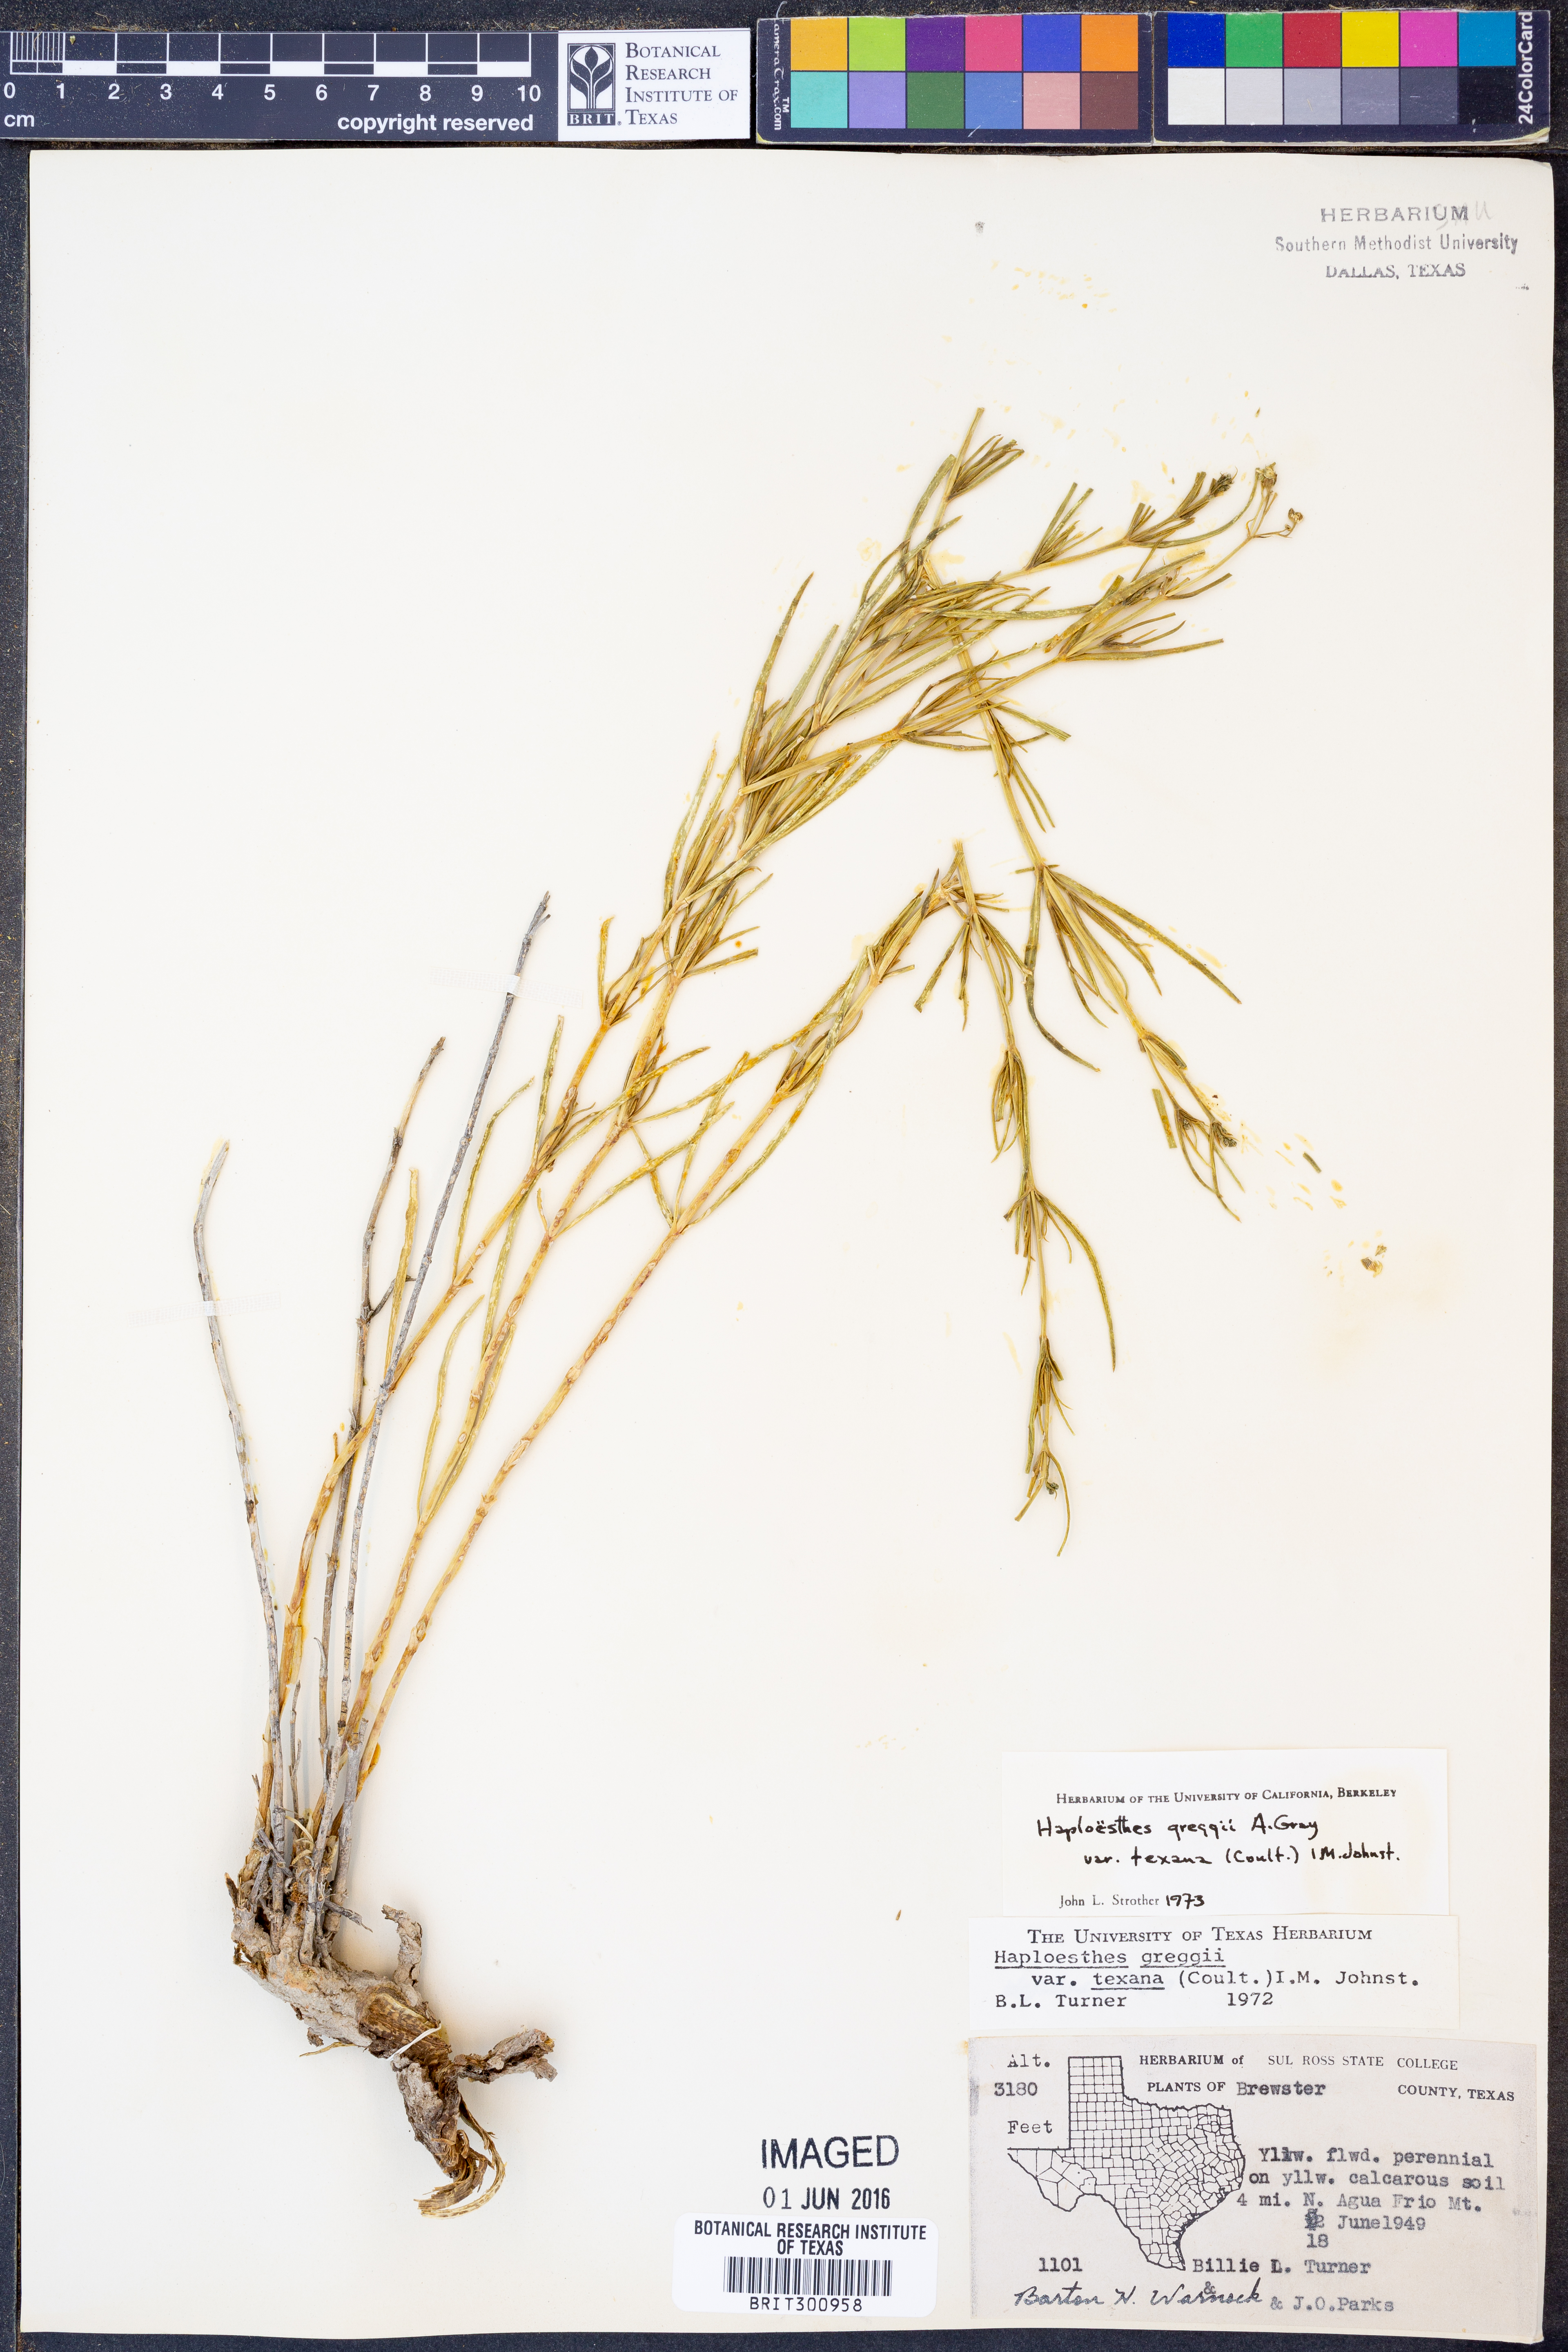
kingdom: Plantae
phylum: Tracheophyta
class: Magnoliopsida
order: Asterales
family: Asteraceae
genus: Haploesthes
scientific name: Haploesthes greggii
